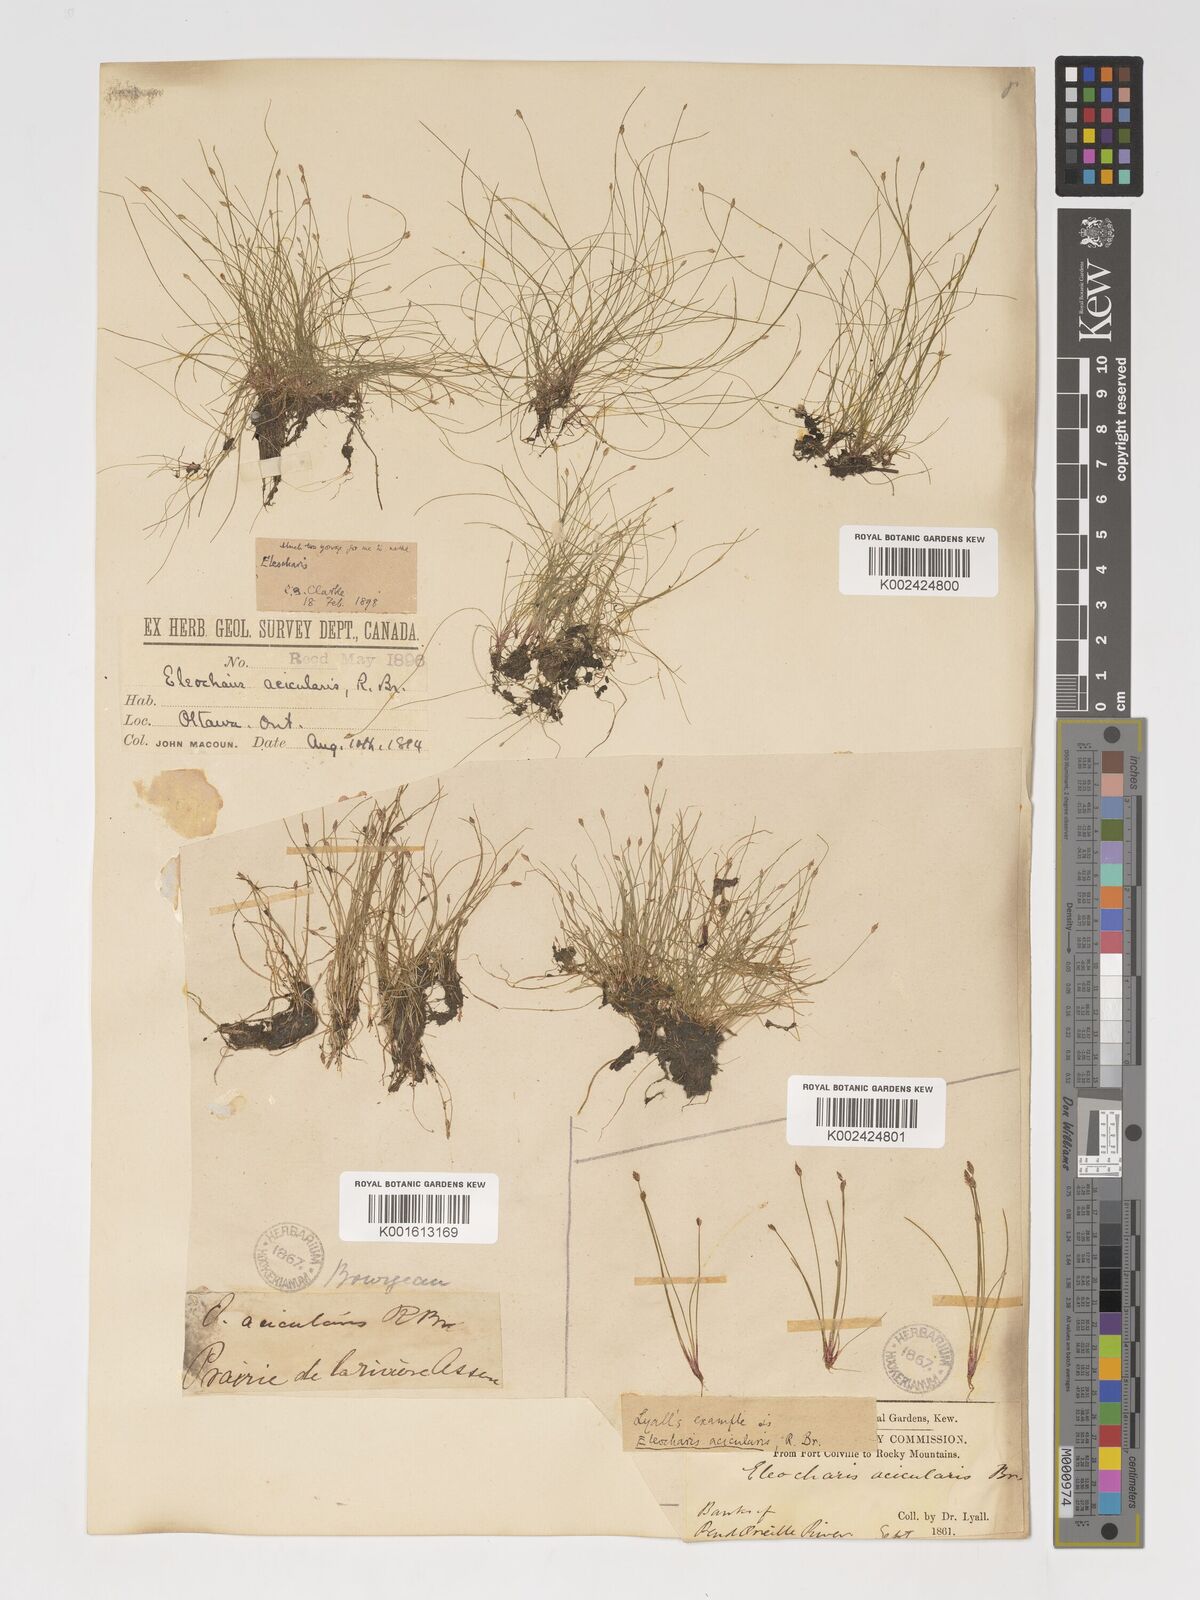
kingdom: Plantae
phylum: Tracheophyta
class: Liliopsida
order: Poales
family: Cyperaceae
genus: Eleocharis
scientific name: Eleocharis acicularis
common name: Needle spike-rush
